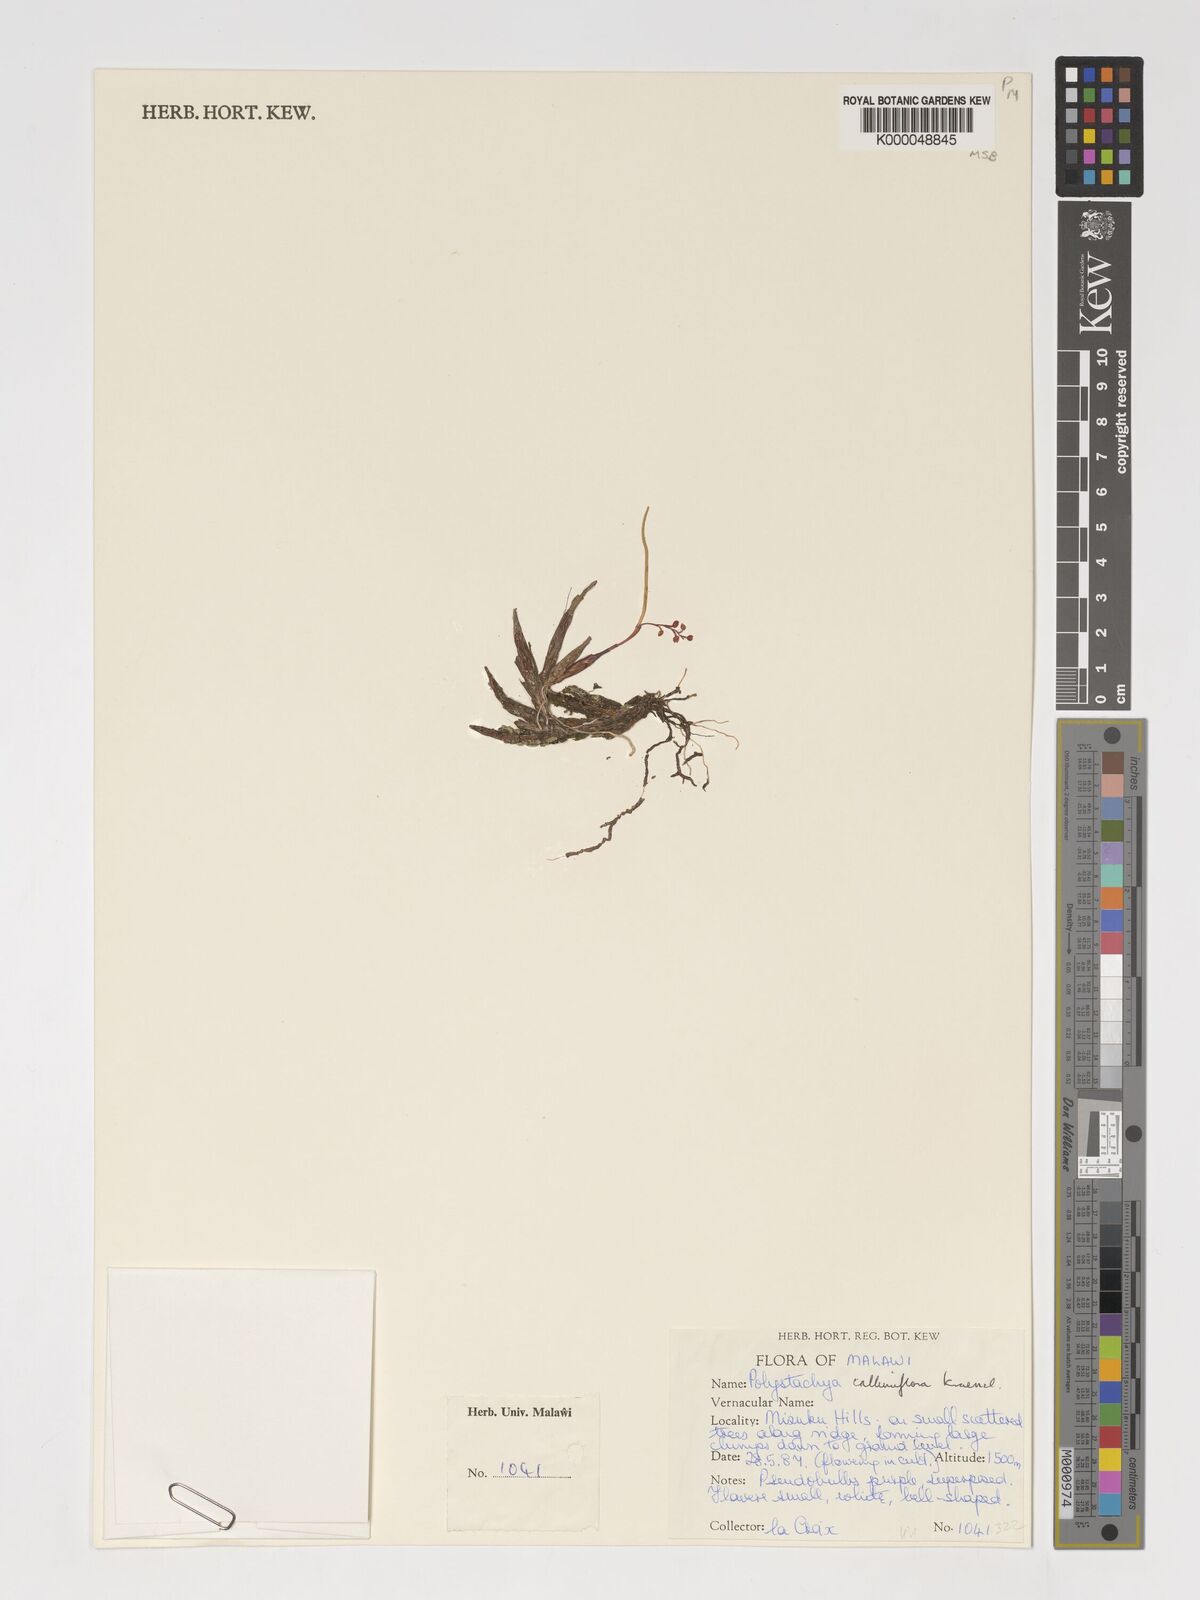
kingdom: Plantae
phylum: Tracheophyta
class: Liliopsida
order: Asparagales
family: Orchidaceae
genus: Polystachya
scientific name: Polystachya hologlossa
